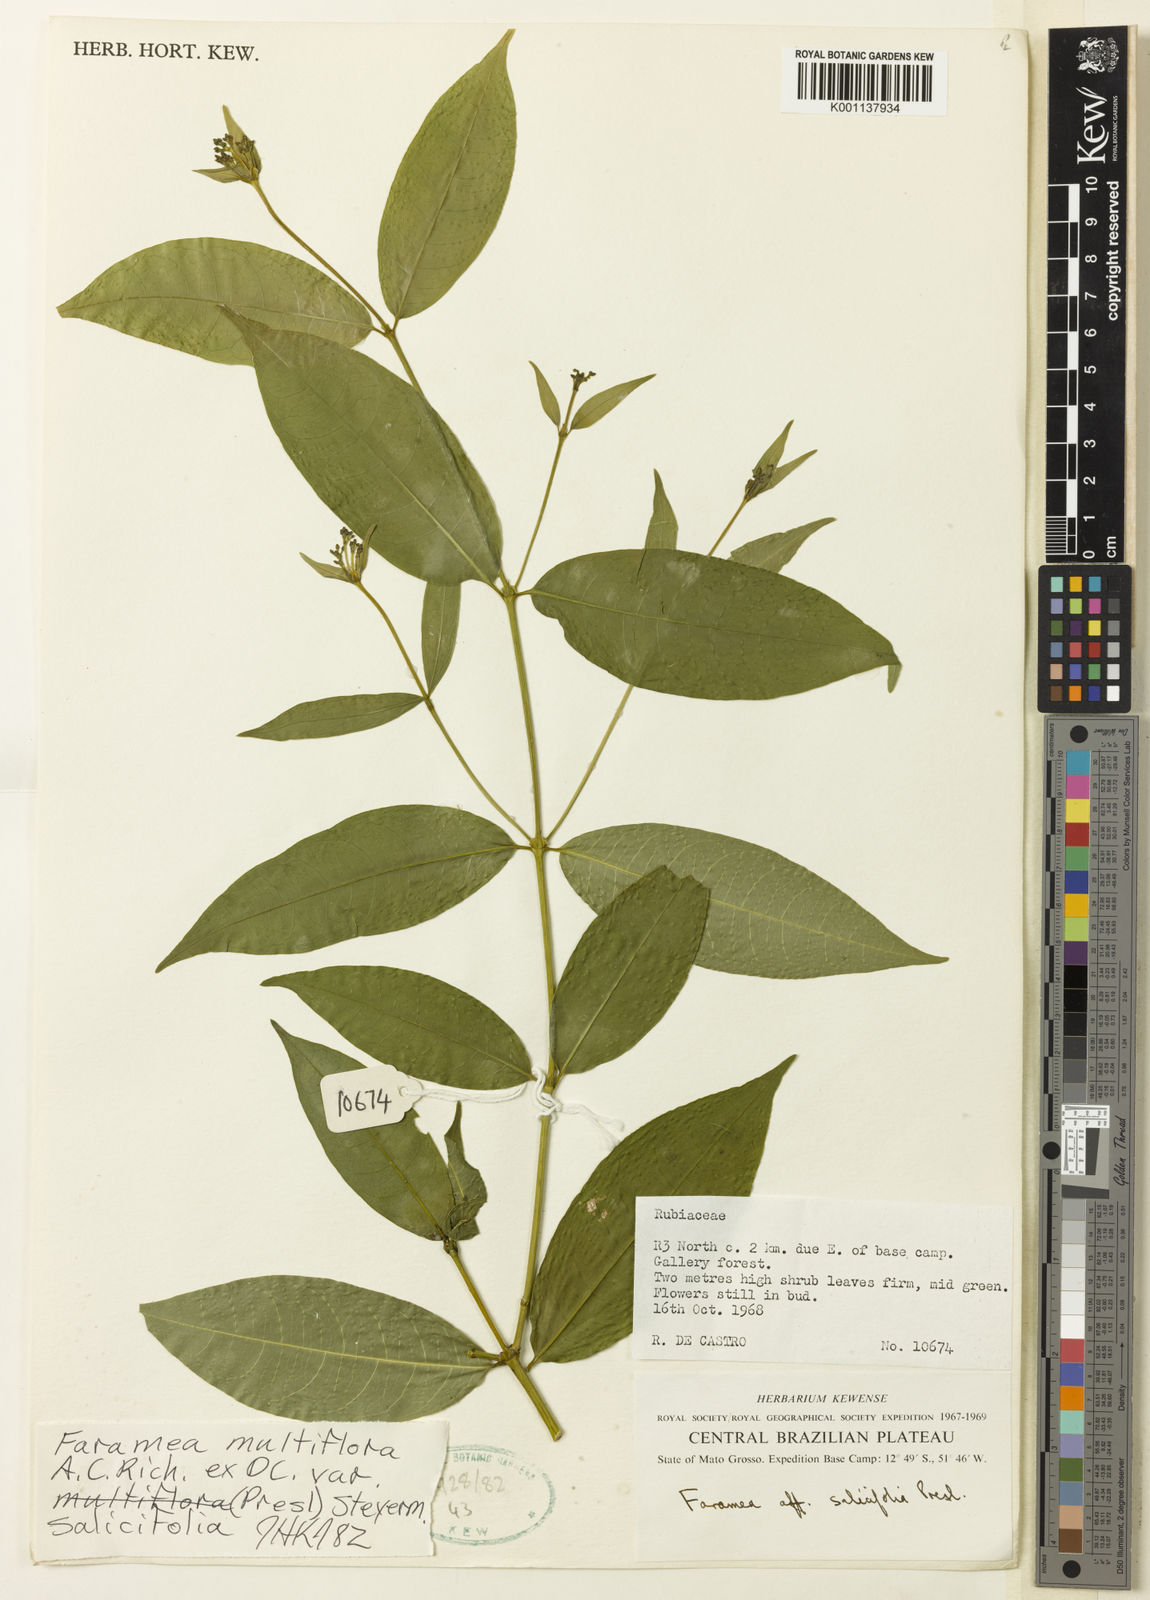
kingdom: Plantae
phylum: Tracheophyta
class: Magnoliopsida
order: Gentianales
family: Rubiaceae
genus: Faramea
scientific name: Faramea multiflora
